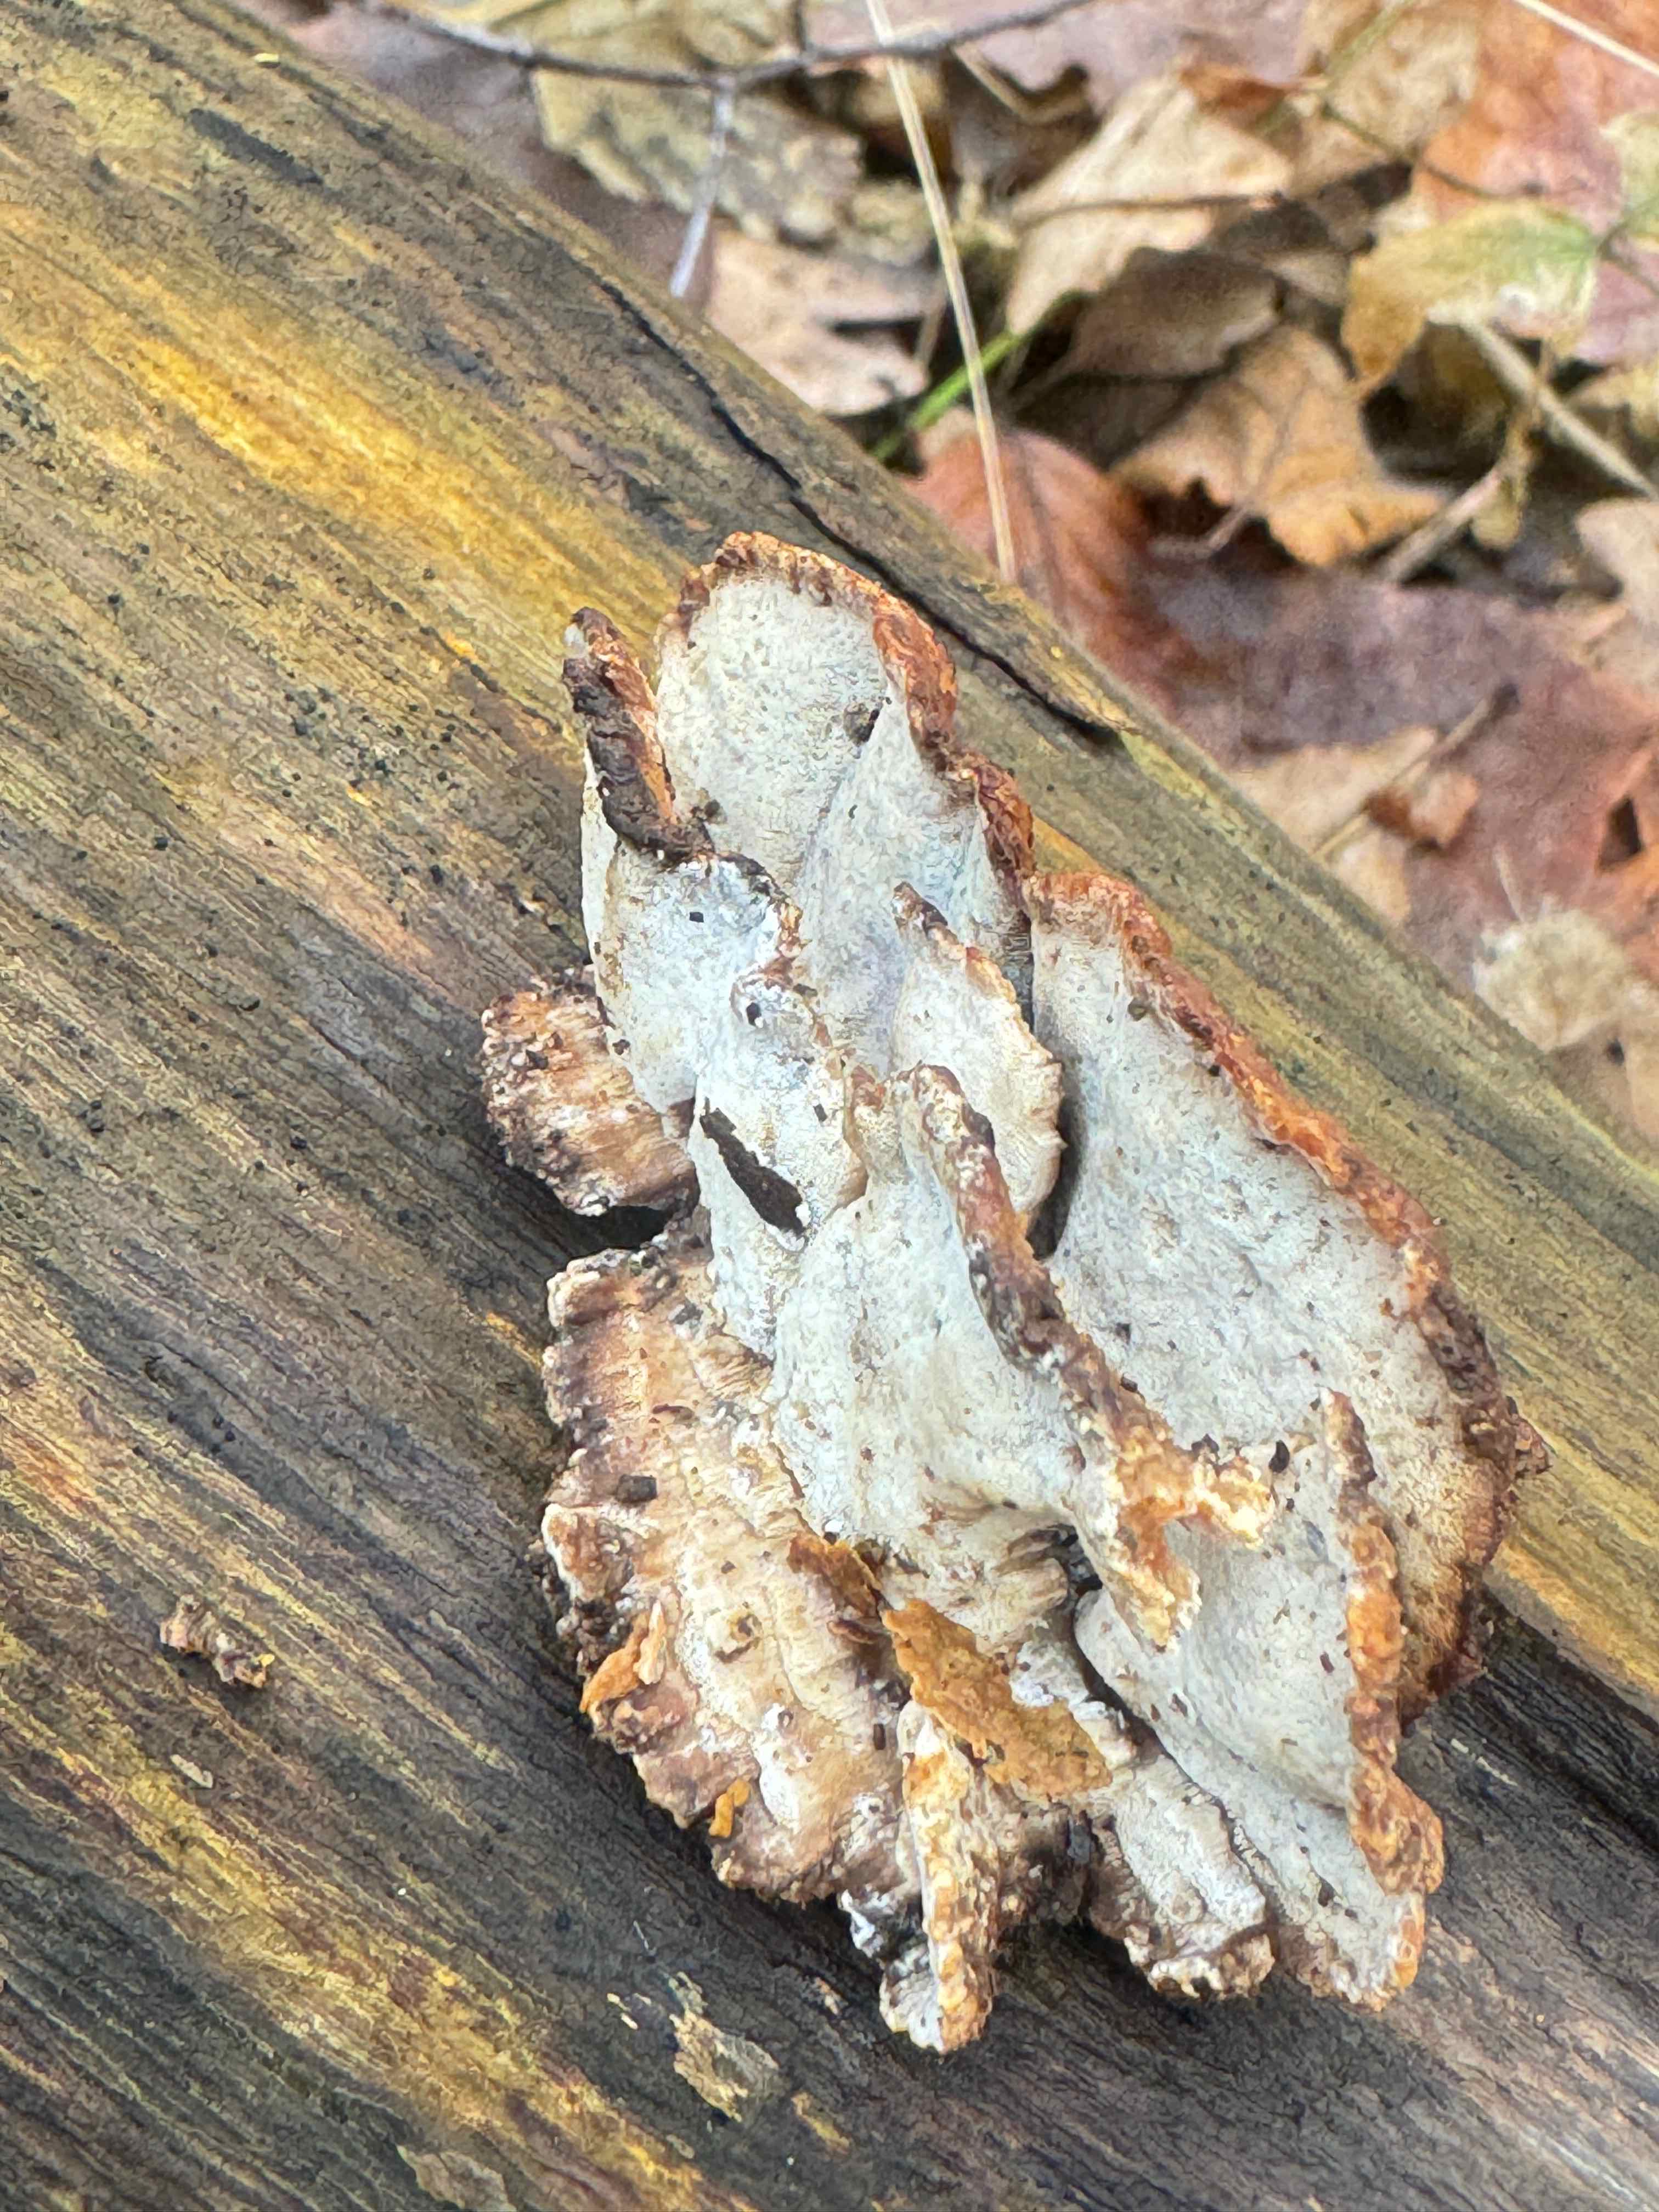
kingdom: Fungi
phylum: Basidiomycota
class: Agaricomycetes
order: Polyporales
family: Incrustoporiaceae
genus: Skeletocutis
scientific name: Skeletocutis nemoralis
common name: stor krystalporesvamp
